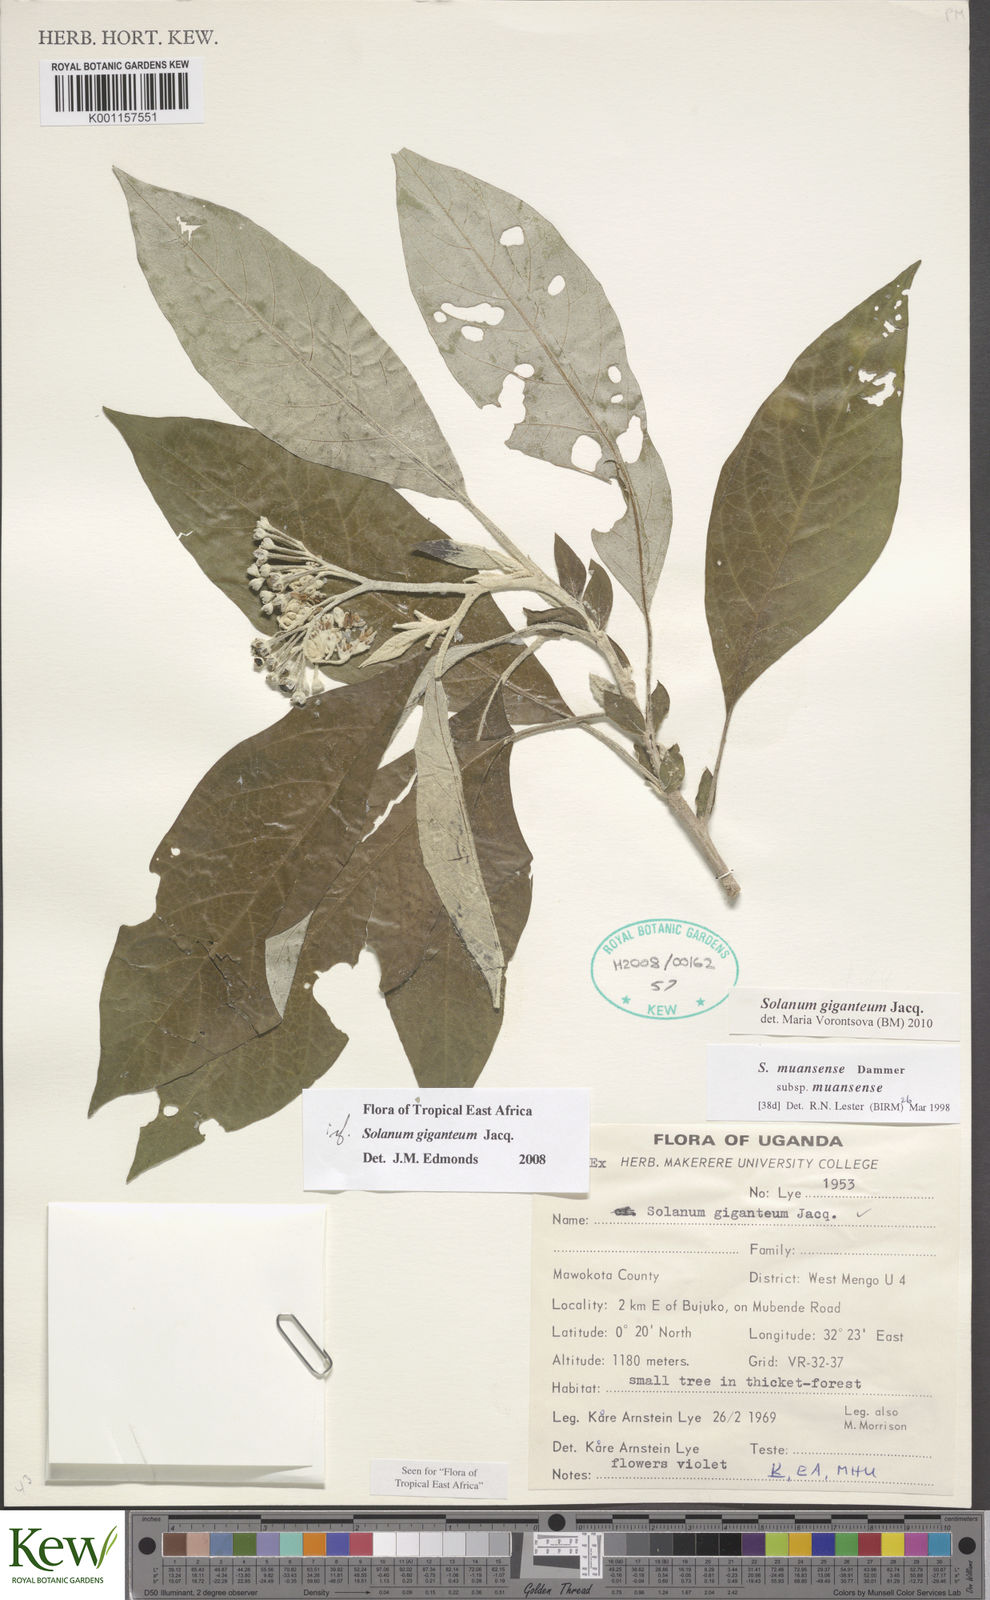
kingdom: Plantae
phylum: Tracheophyta
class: Magnoliopsida
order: Solanales
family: Solanaceae
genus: Solanum
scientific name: Solanum giganteum
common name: Healing-leaf-tree
